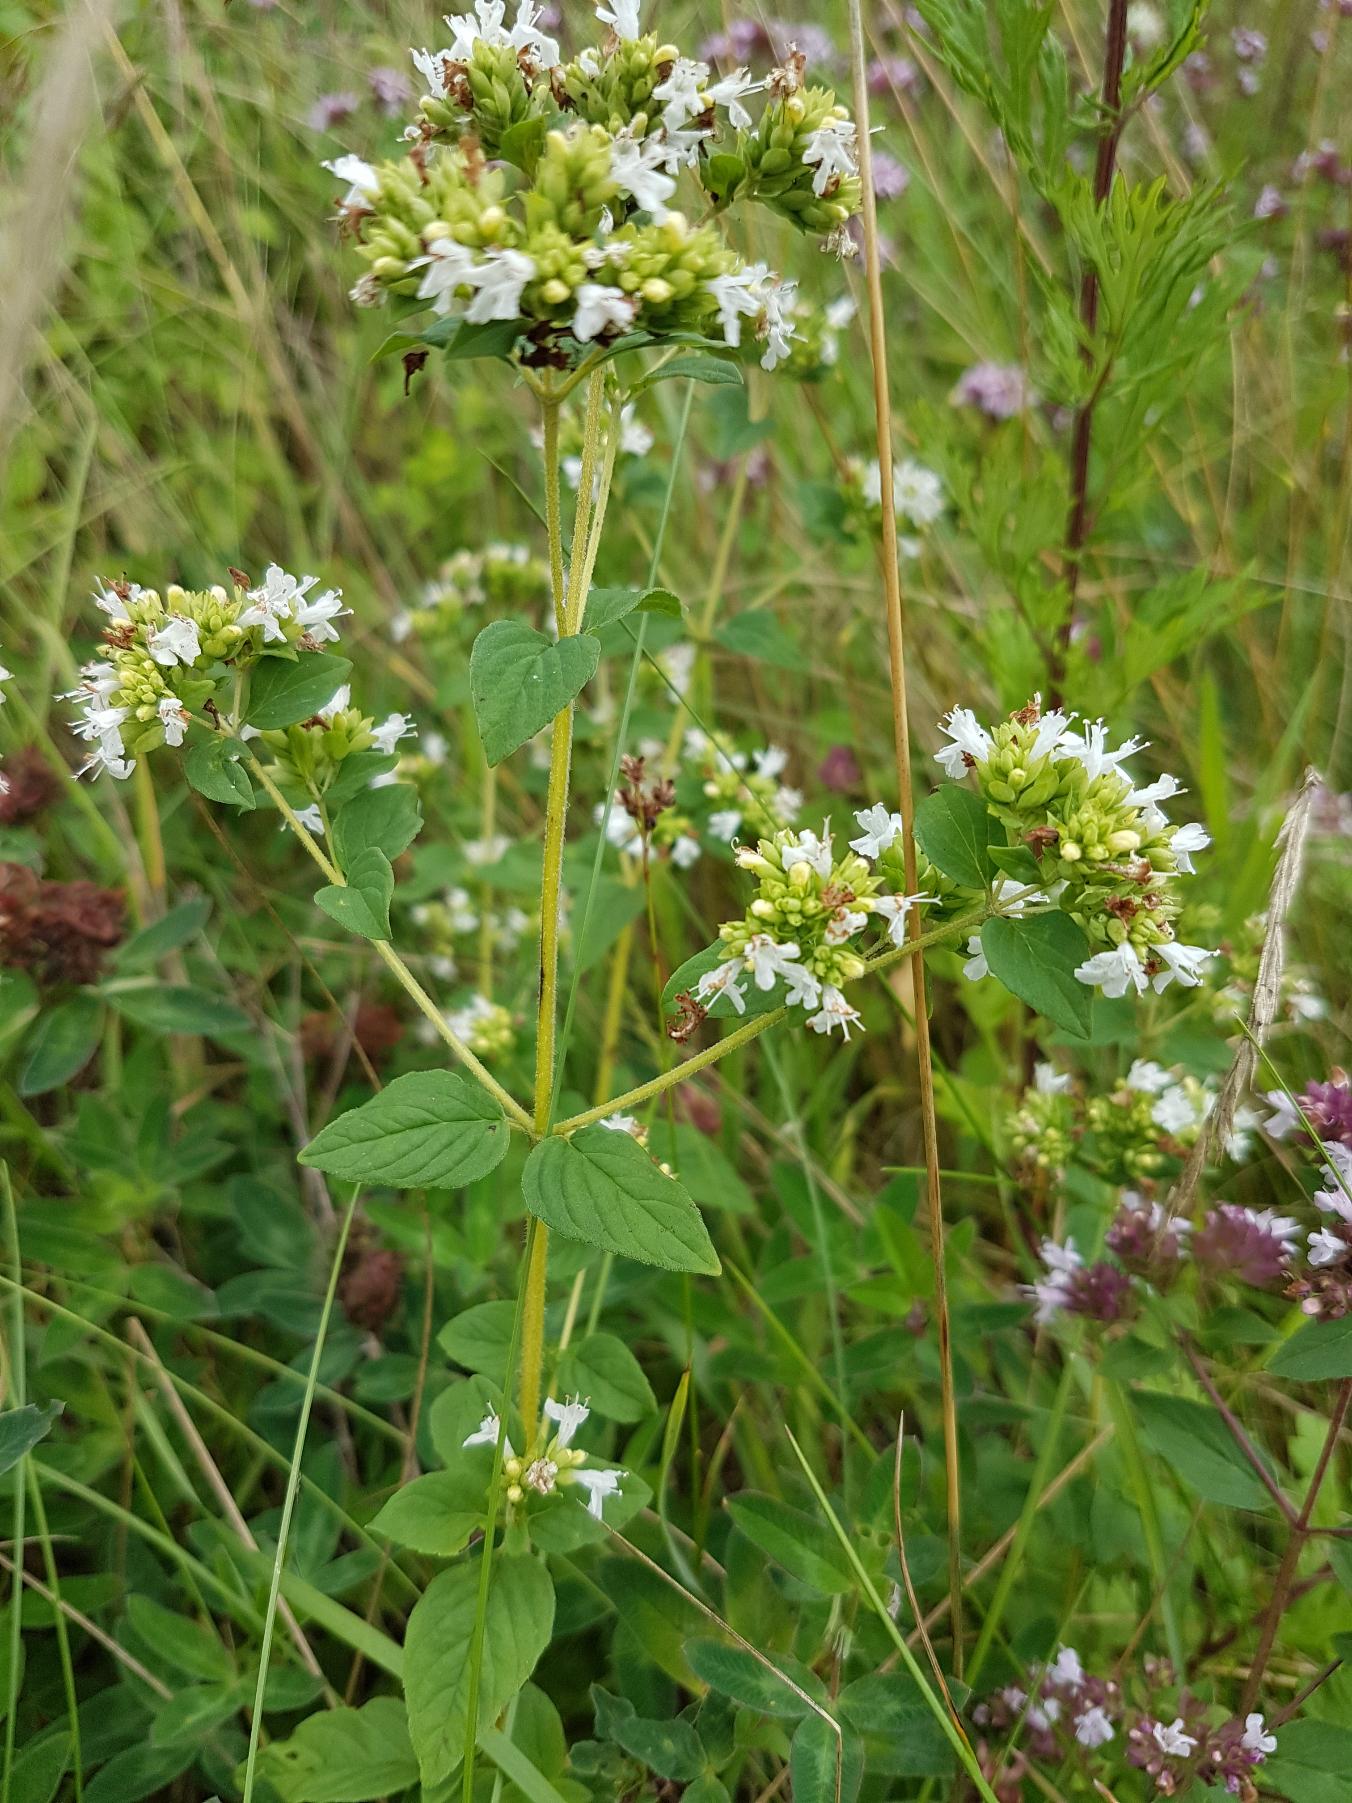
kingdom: Plantae
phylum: Tracheophyta
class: Magnoliopsida
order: Lamiales
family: Lamiaceae
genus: Origanum
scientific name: Origanum vulgare
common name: Merian
